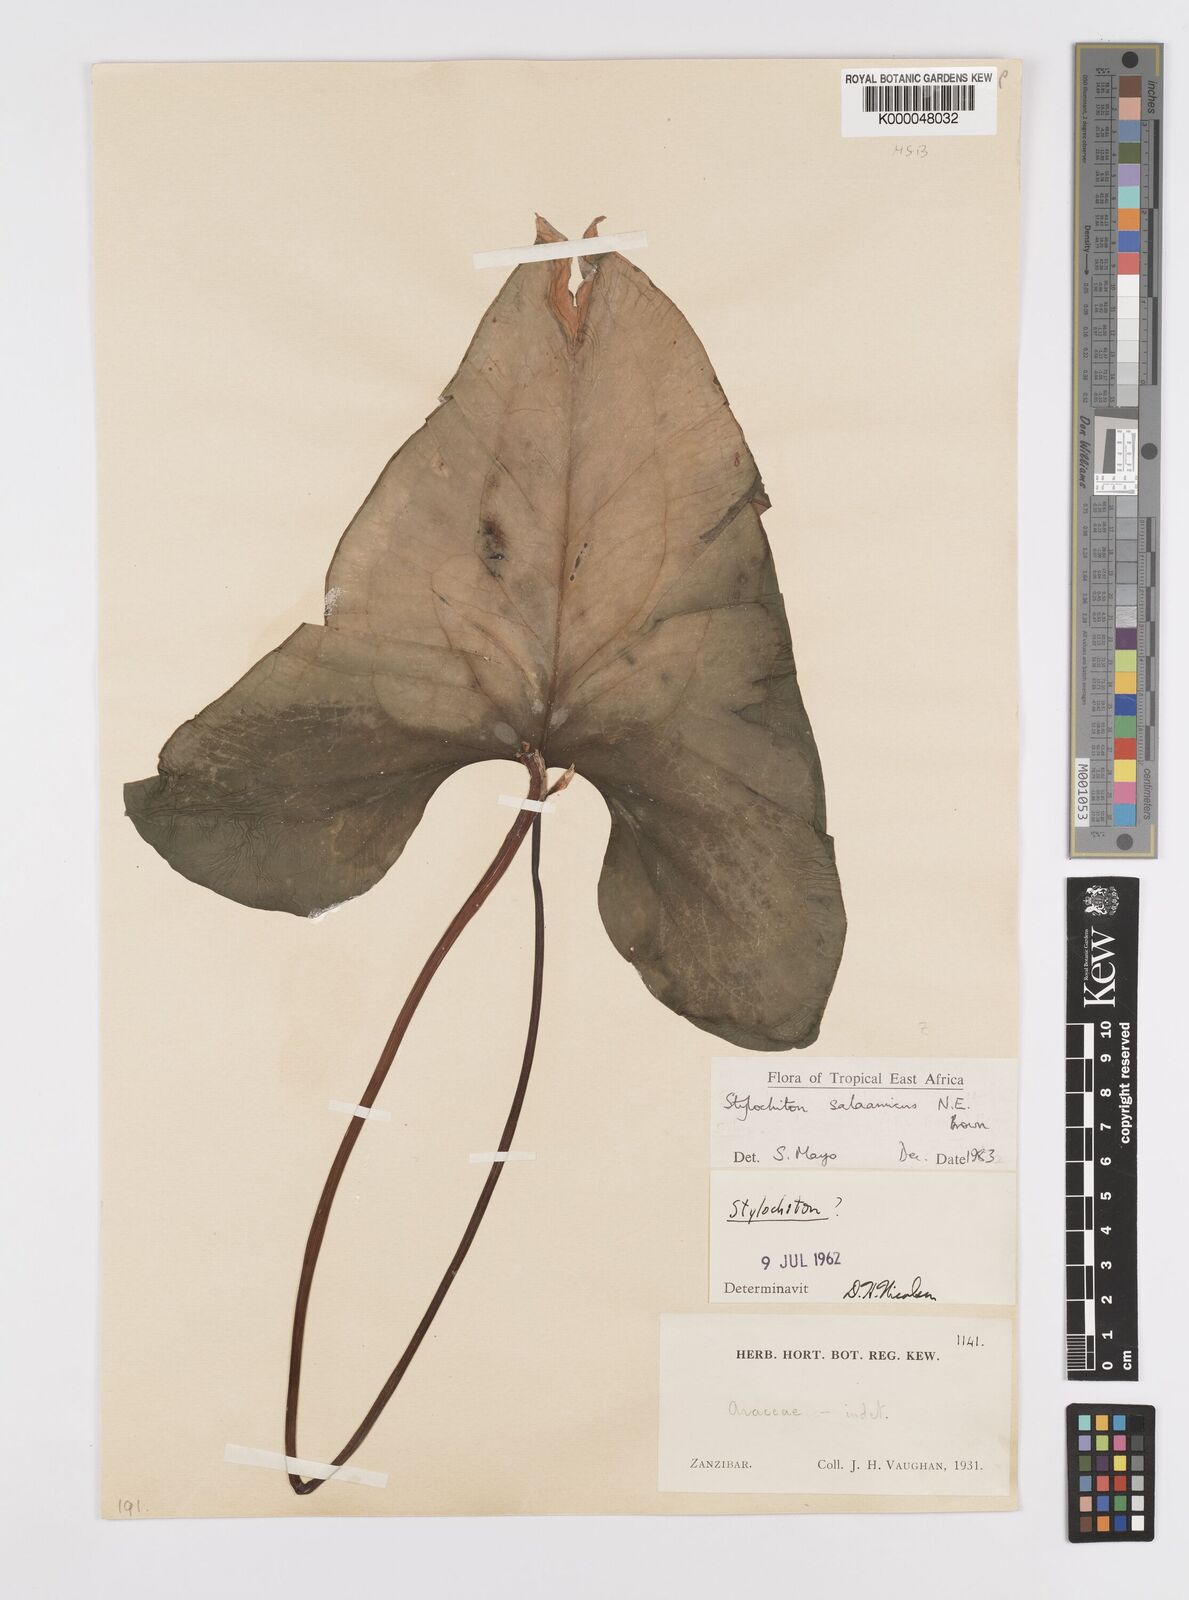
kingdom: Plantae
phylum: Tracheophyta
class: Liliopsida
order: Alismatales
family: Araceae
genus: Stylochaeton
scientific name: Stylochaeton salaamicum
